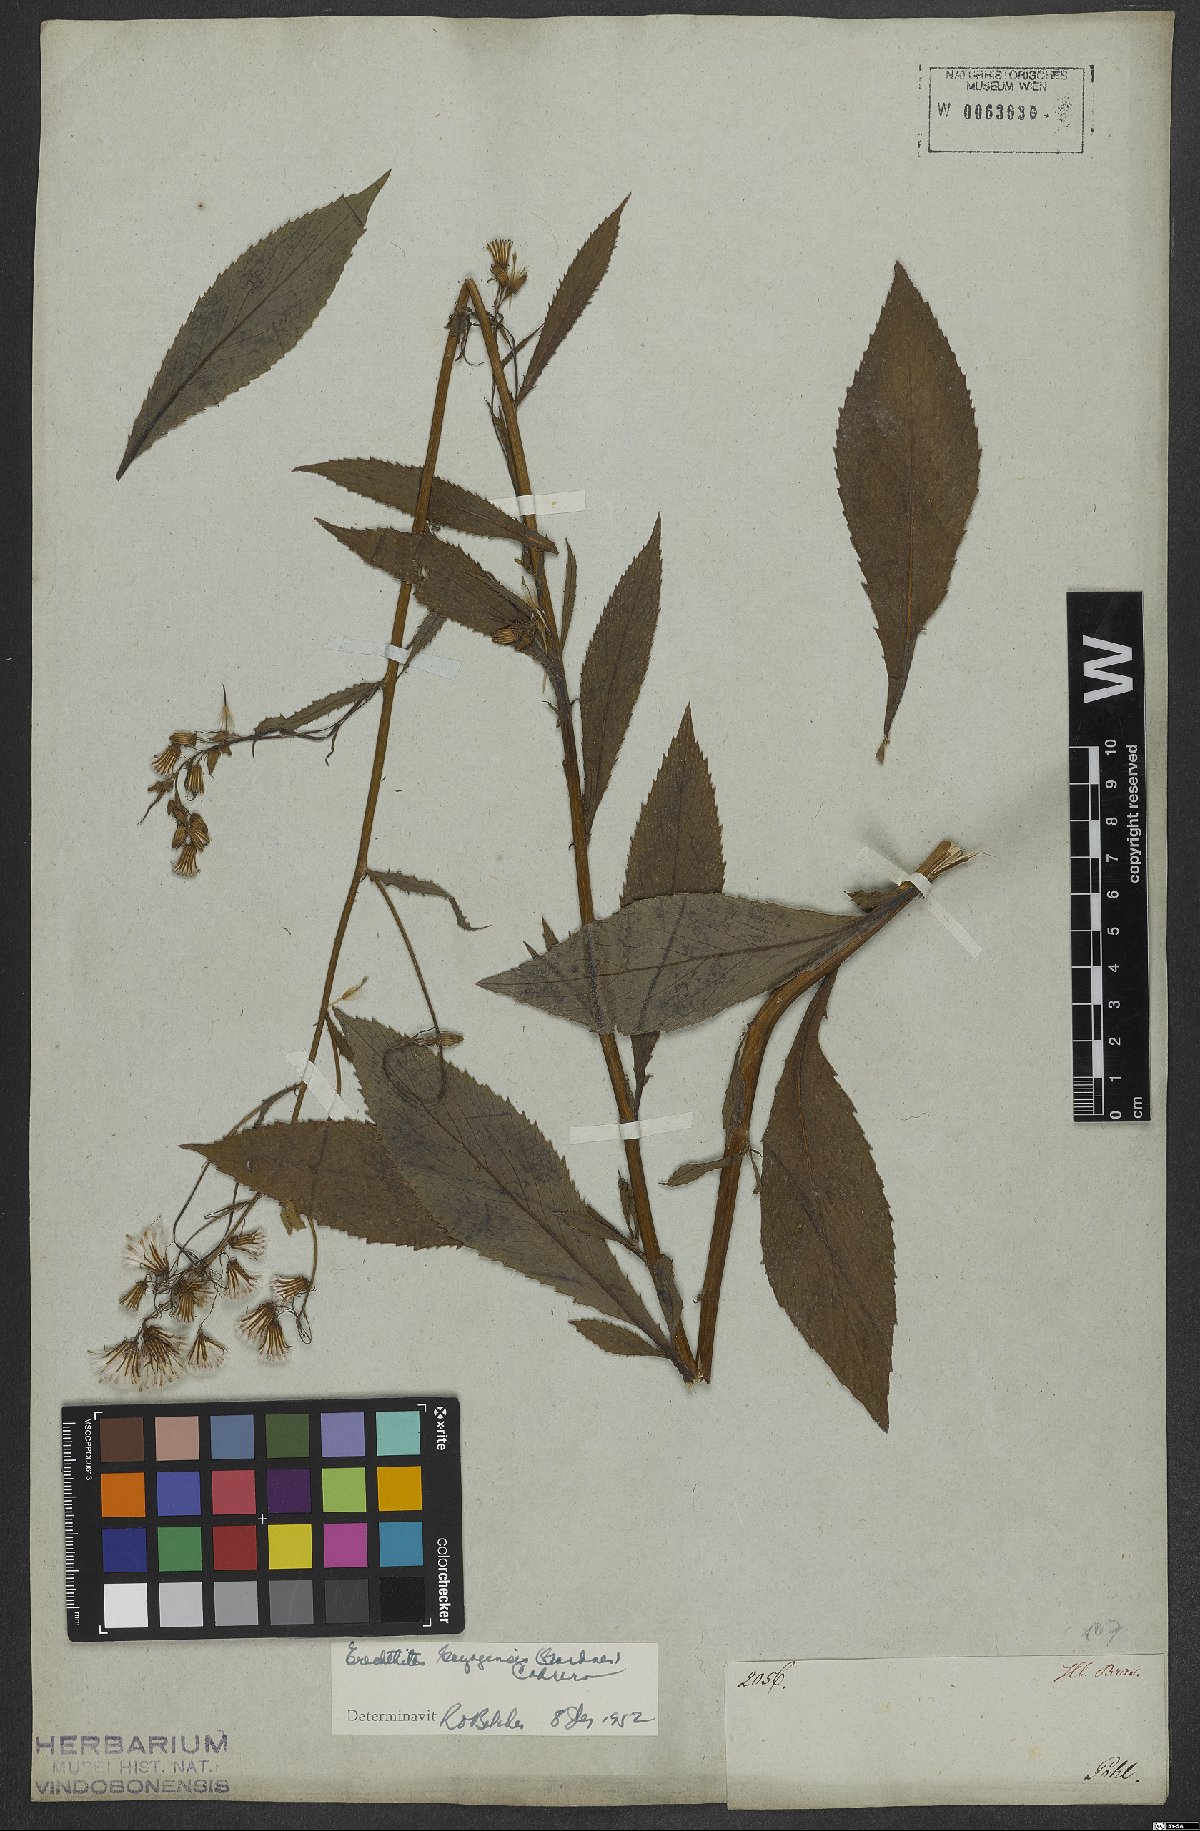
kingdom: Plantae
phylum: Tracheophyta
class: Magnoliopsida
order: Asterales
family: Asteraceae
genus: Erechtites
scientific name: Erechtites goyazensis
